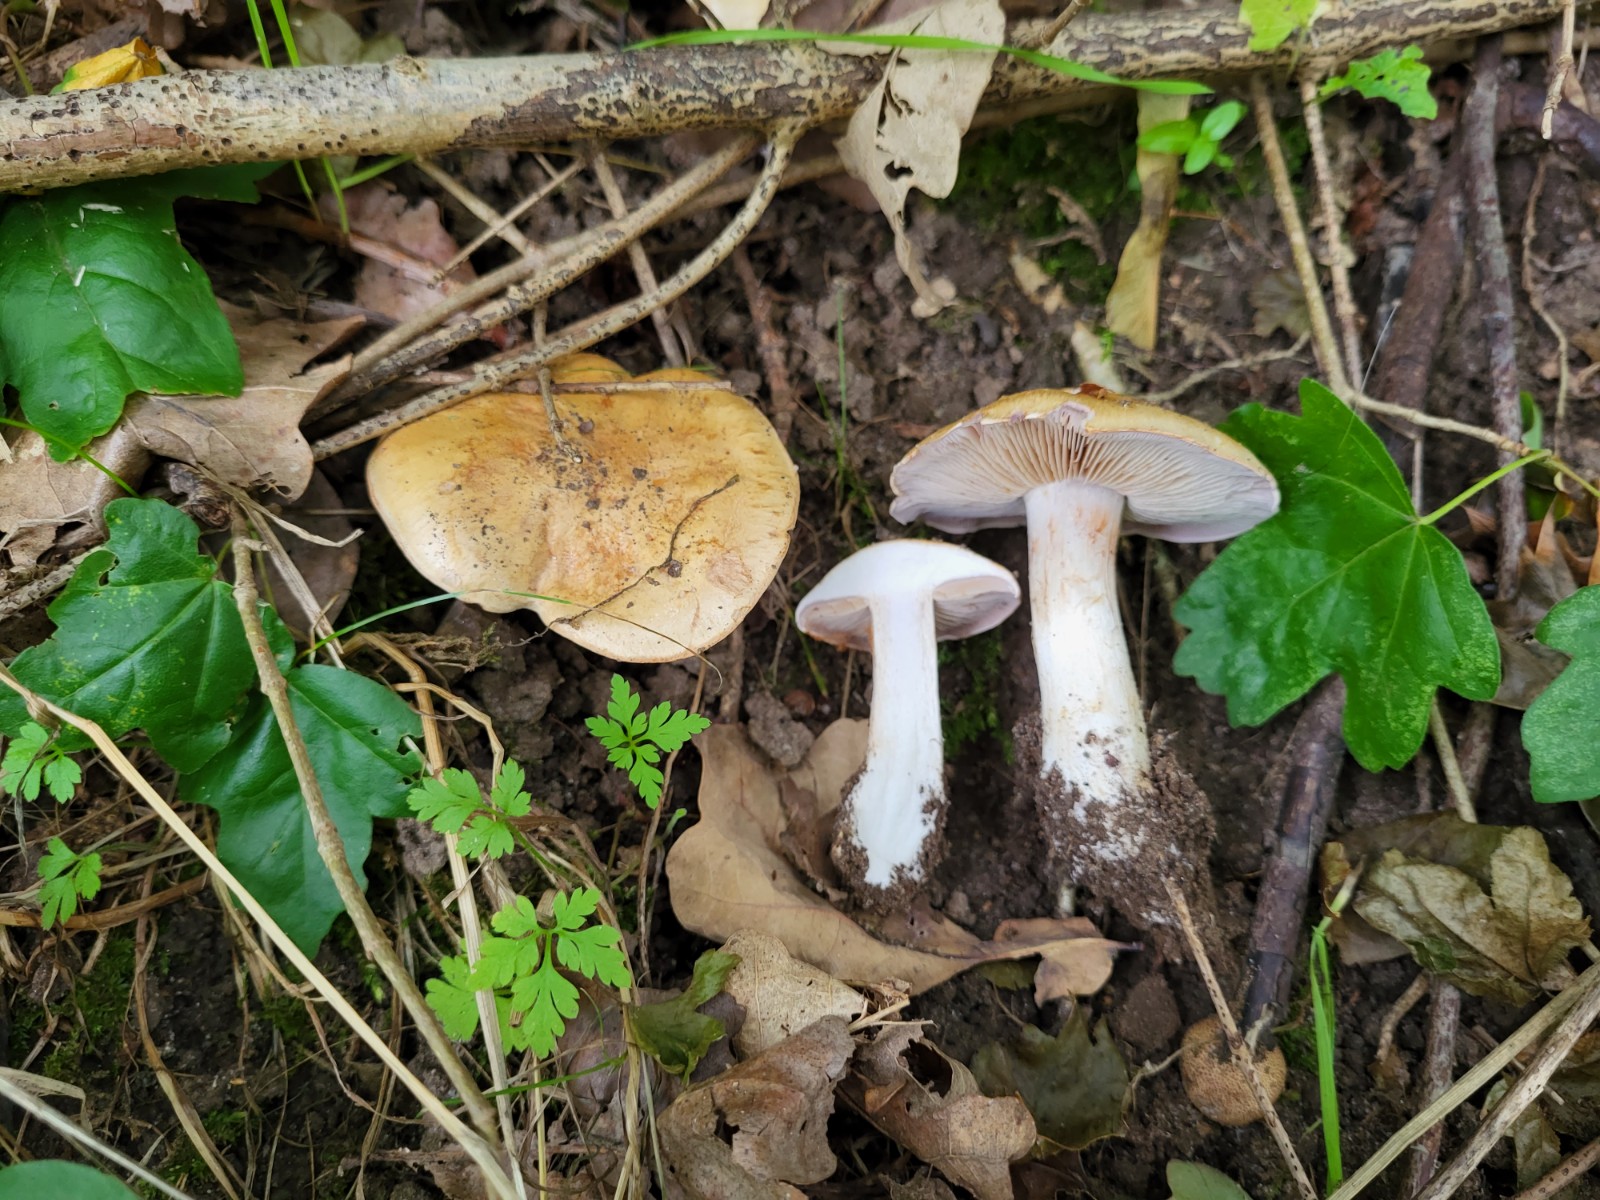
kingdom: Fungi
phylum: Basidiomycota
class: Agaricomycetes
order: Agaricales
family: Cortinariaceae
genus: Phlegmacium
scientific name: Phlegmacium cliduchus
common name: majs-slørhat
